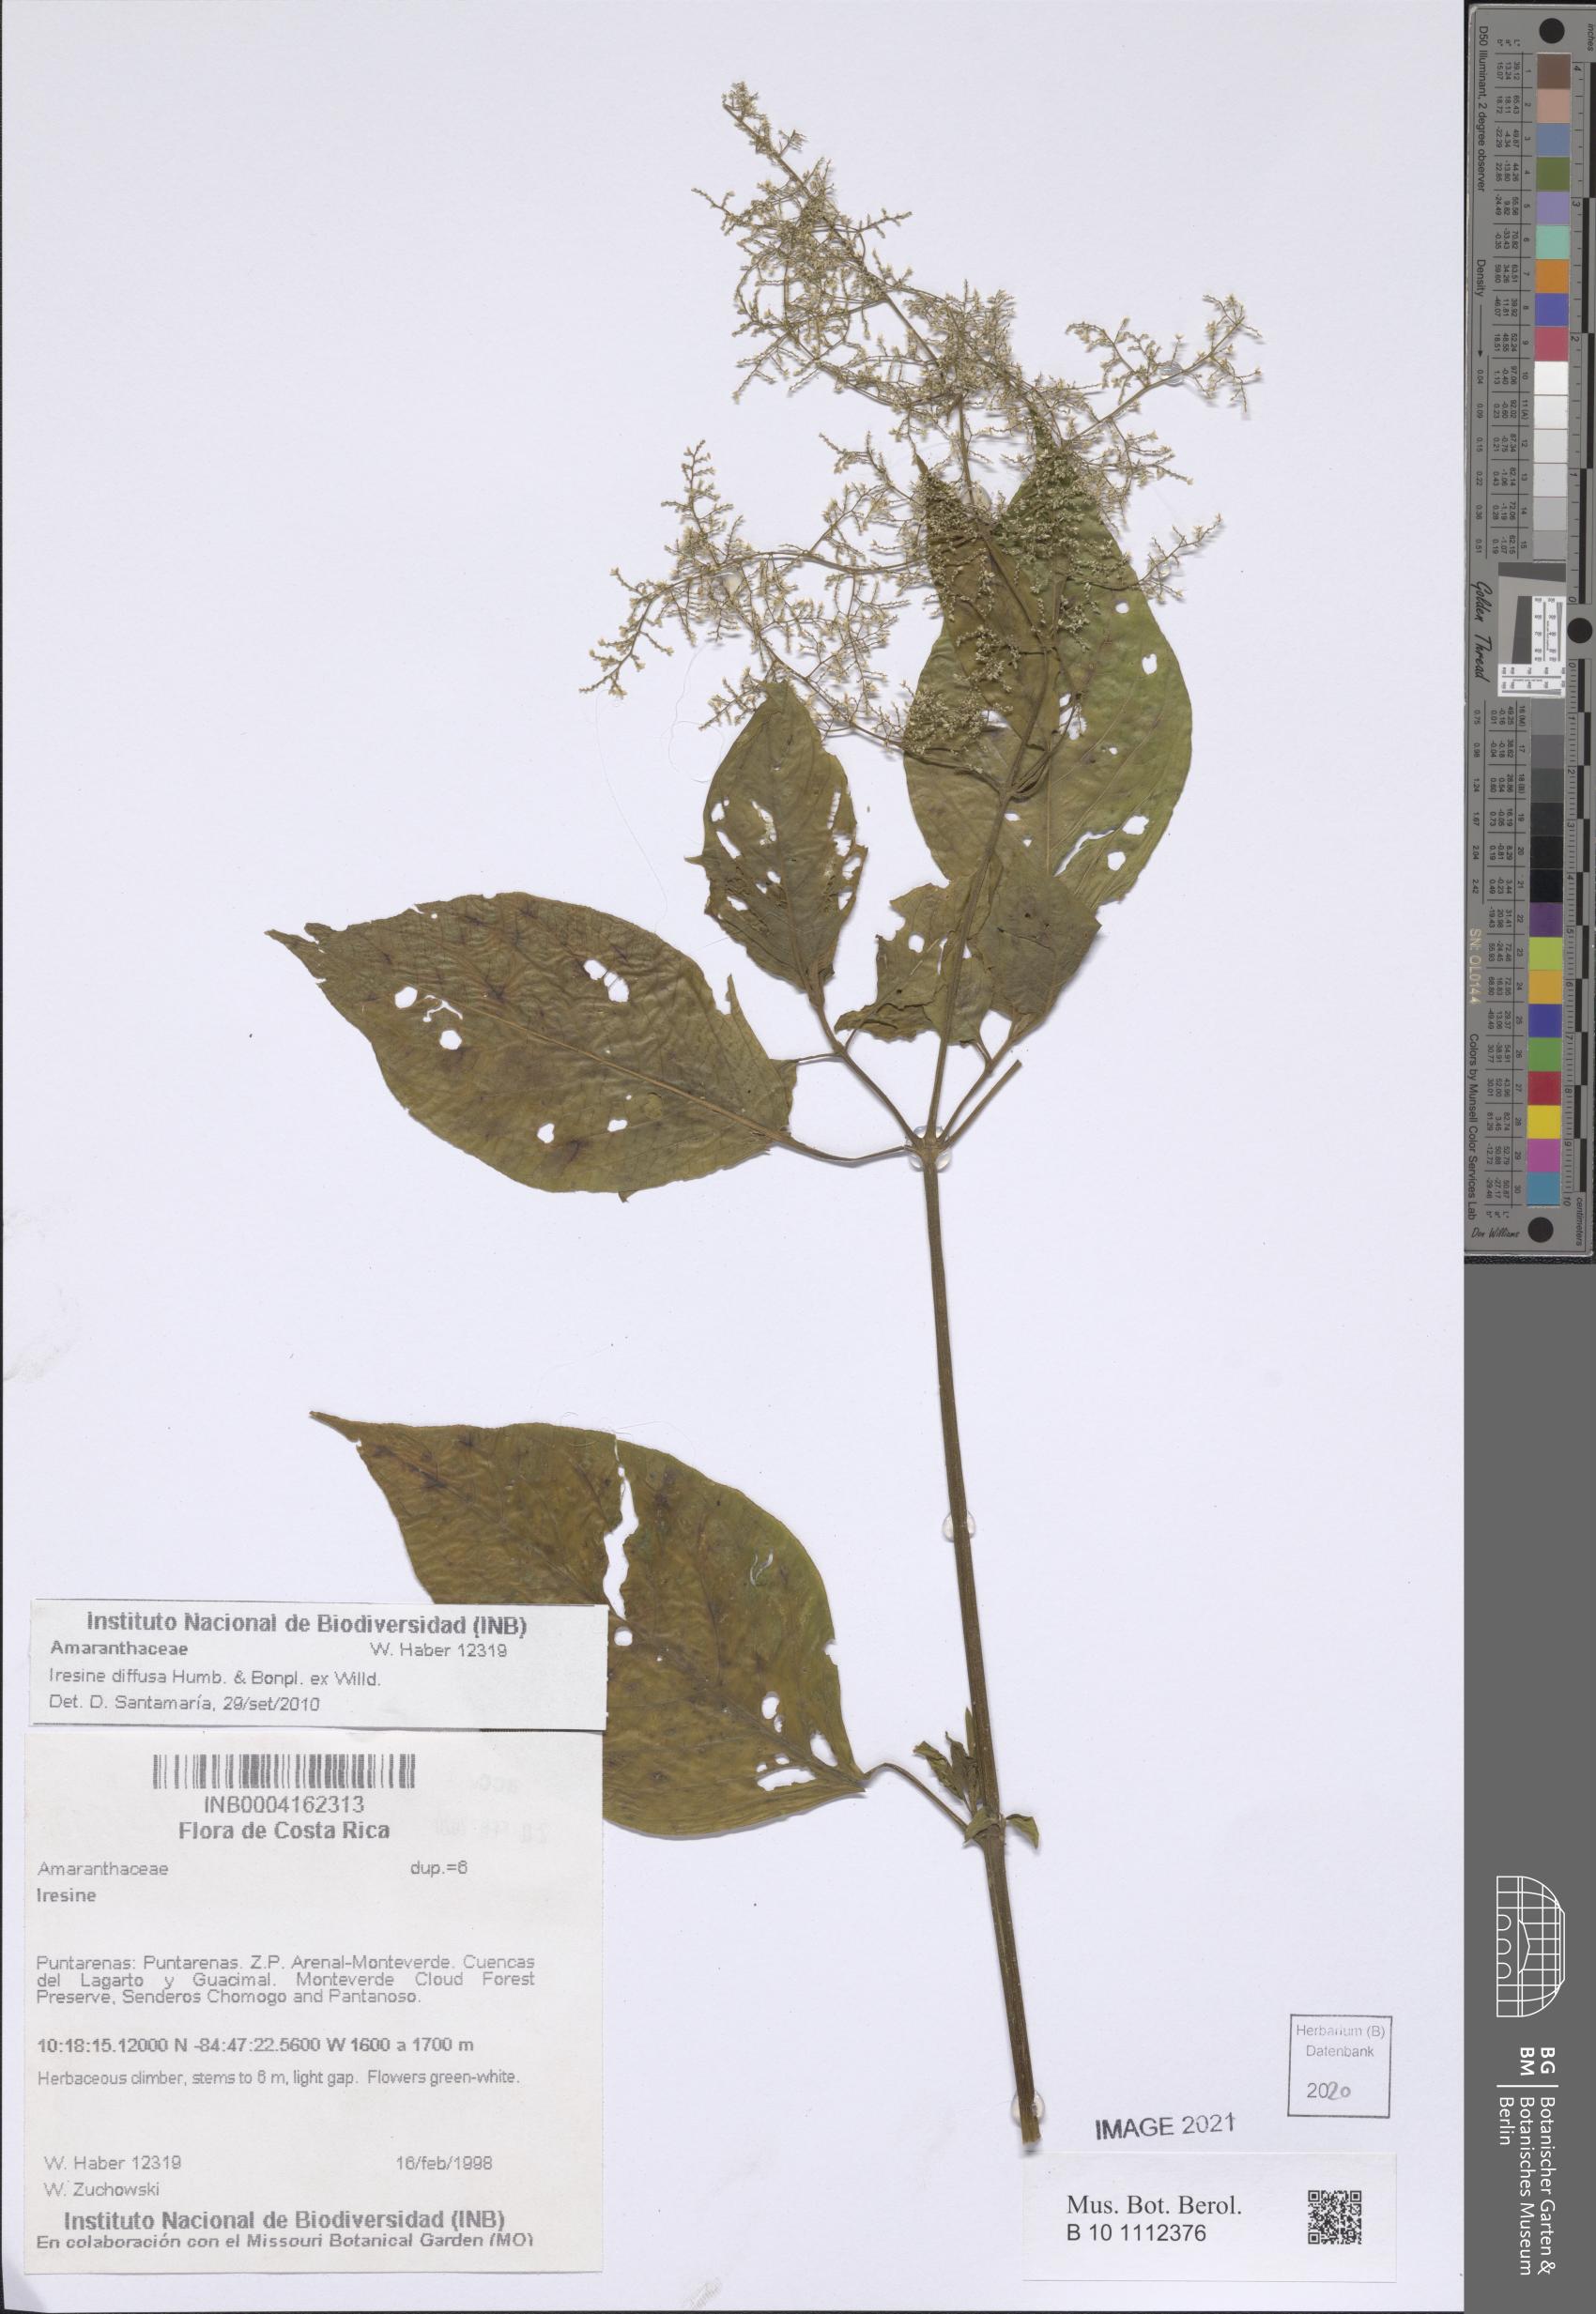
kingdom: Plantae
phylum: Tracheophyta
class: Magnoliopsida
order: Caryophyllales
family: Amaranthaceae
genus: Iresine
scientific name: Iresine diffusa
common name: Juba's-bush
